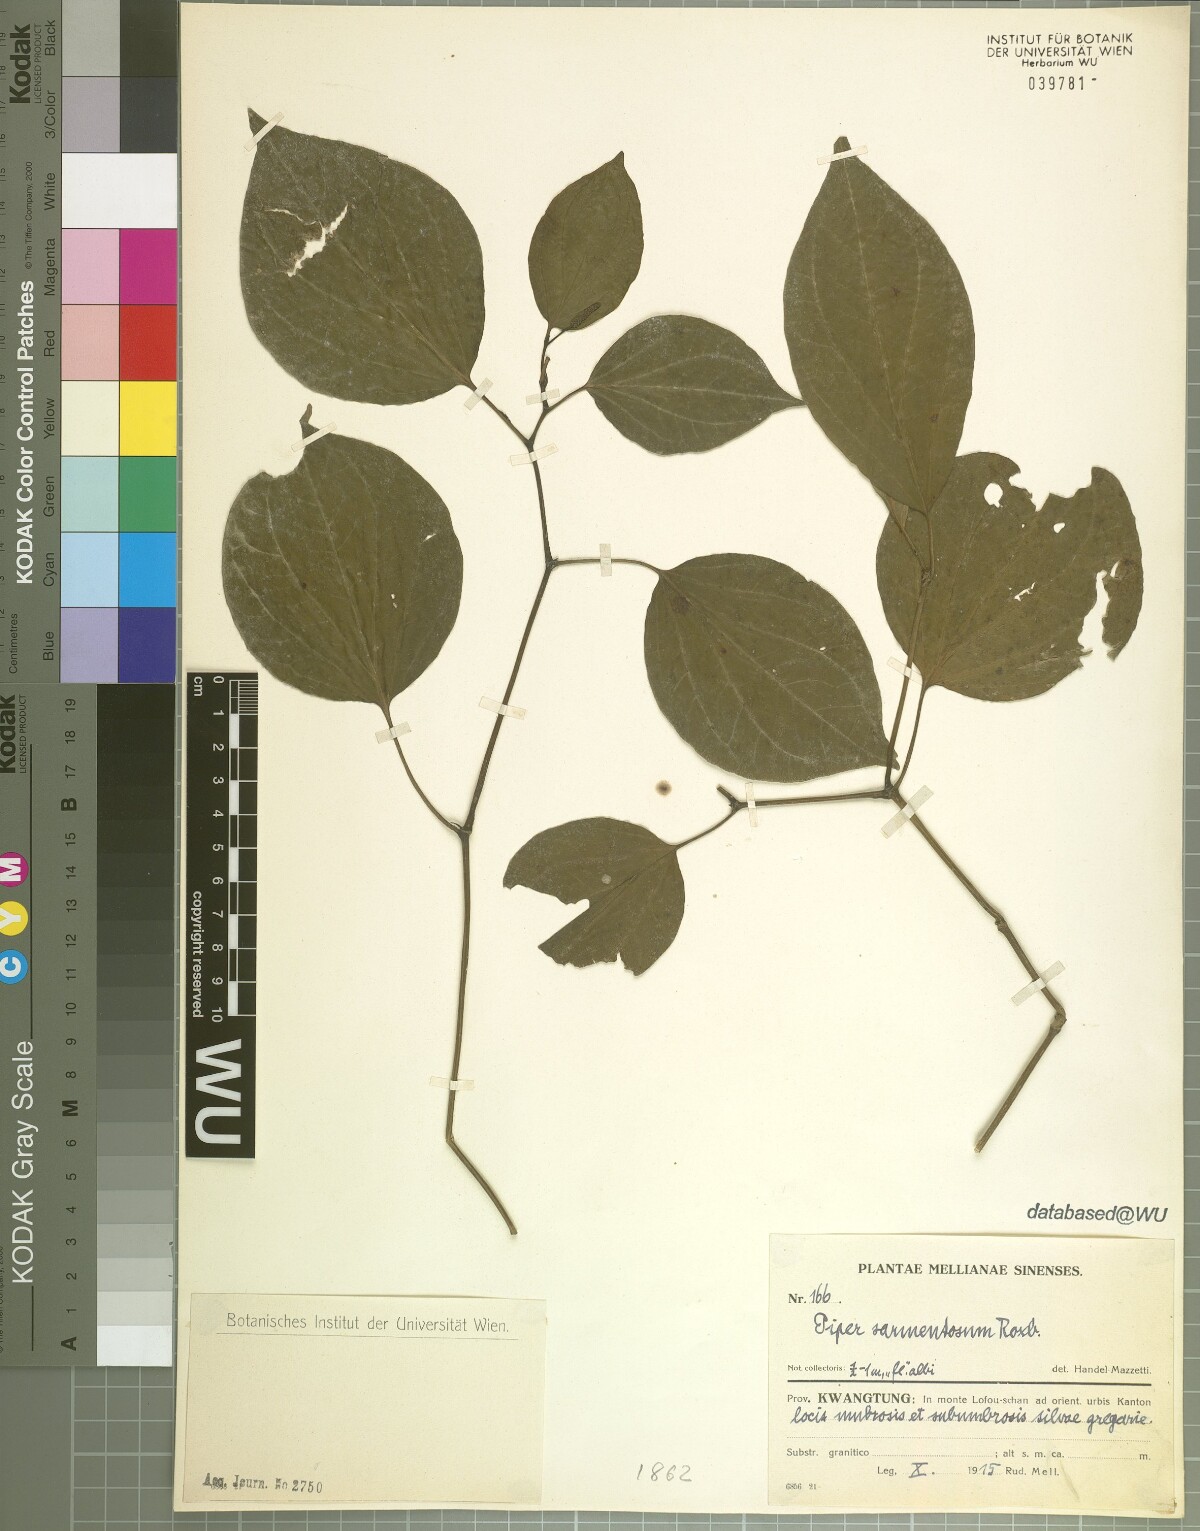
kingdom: Plantae
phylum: Tracheophyta
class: Magnoliopsida
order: Piperales
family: Piperaceae
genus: Piper
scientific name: Piper sarmentosum
